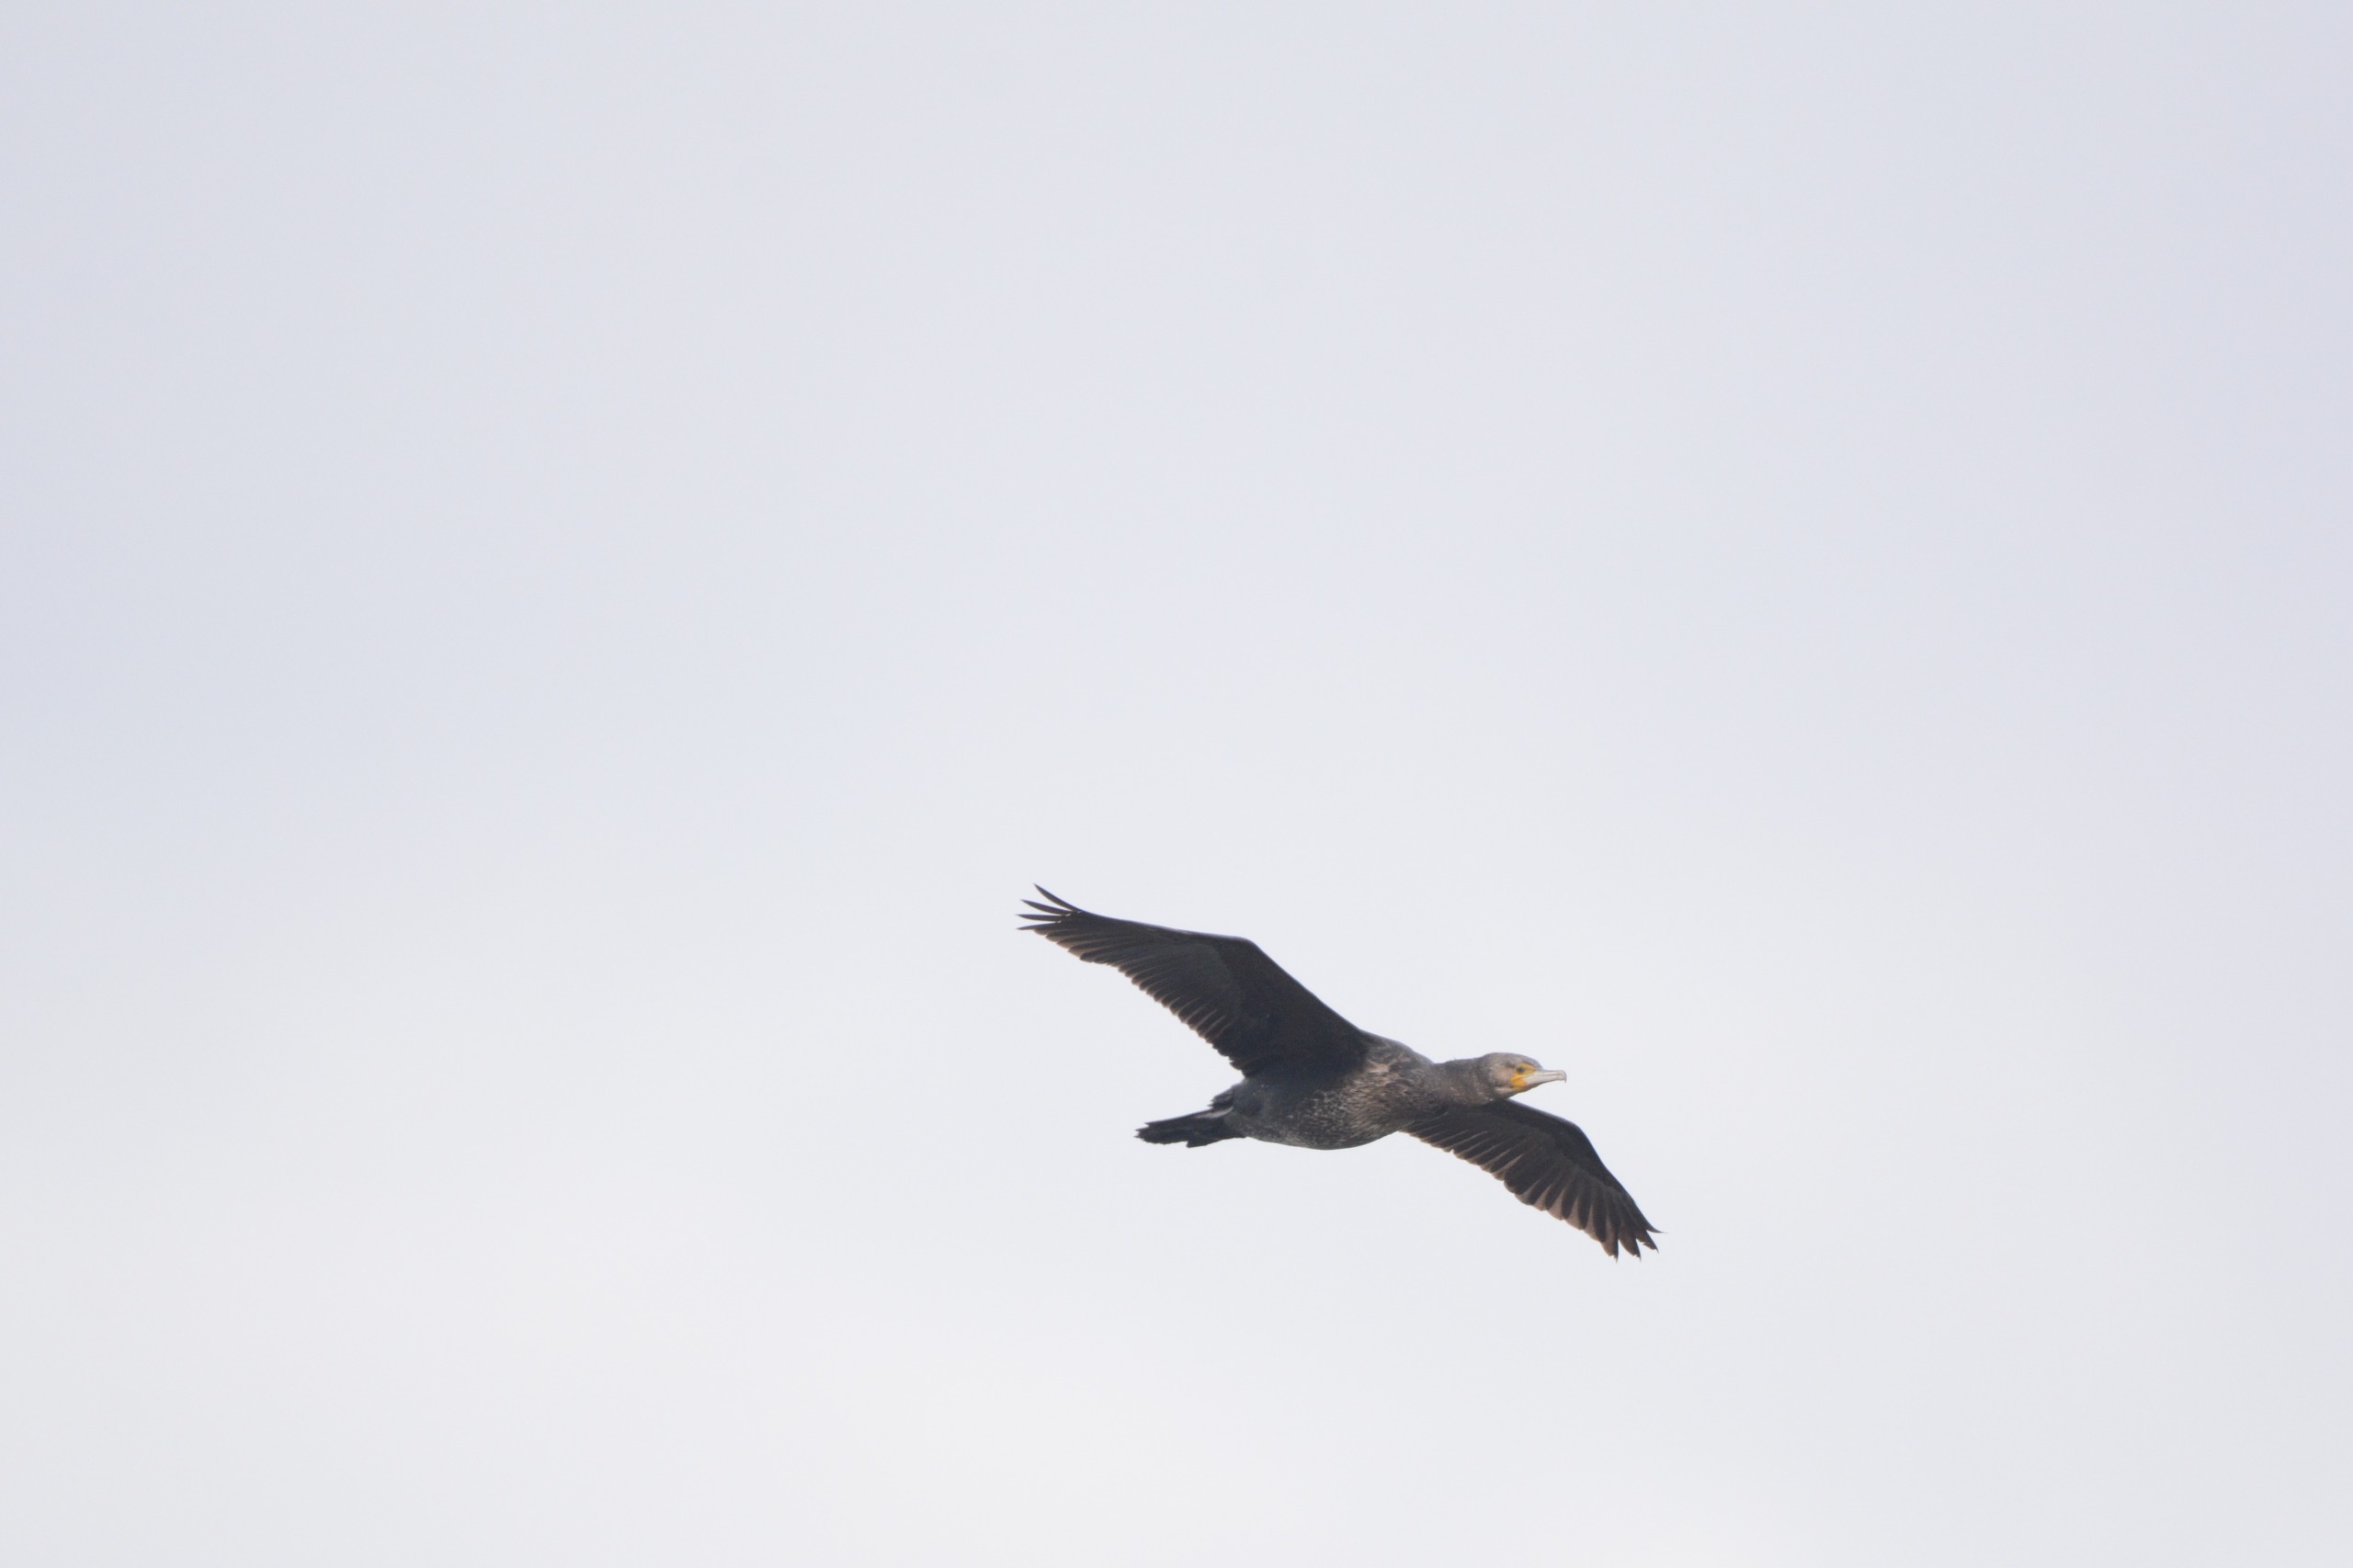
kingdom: Animalia
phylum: Chordata
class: Aves
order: Suliformes
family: Phalacrocoracidae
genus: Phalacrocorax
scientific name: Phalacrocorax carbo
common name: Skarv
